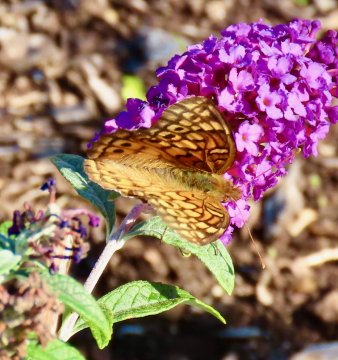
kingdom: Animalia
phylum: Arthropoda
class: Insecta
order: Lepidoptera
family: Nymphalidae
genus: Euptoieta
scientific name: Euptoieta claudia
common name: Variegated Fritillary
